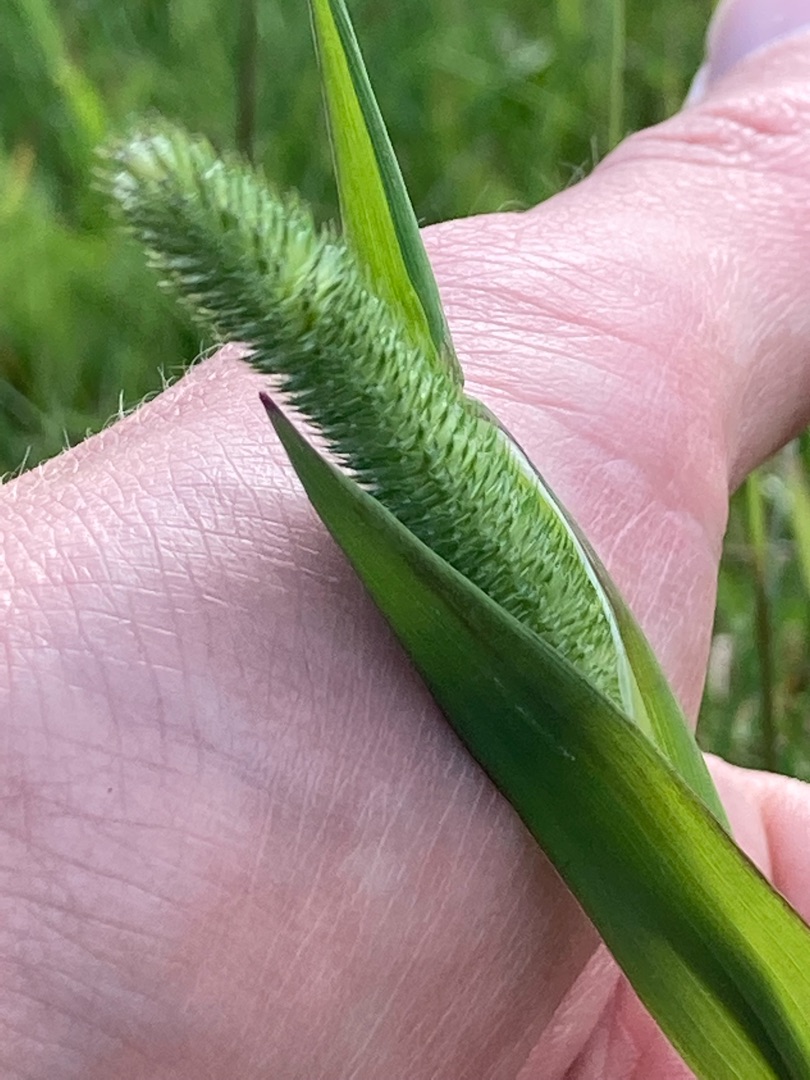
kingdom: Plantae
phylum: Tracheophyta
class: Liliopsida
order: Poales
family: Poaceae
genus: Phleum
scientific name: Phleum
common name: Rottehaleslægten
